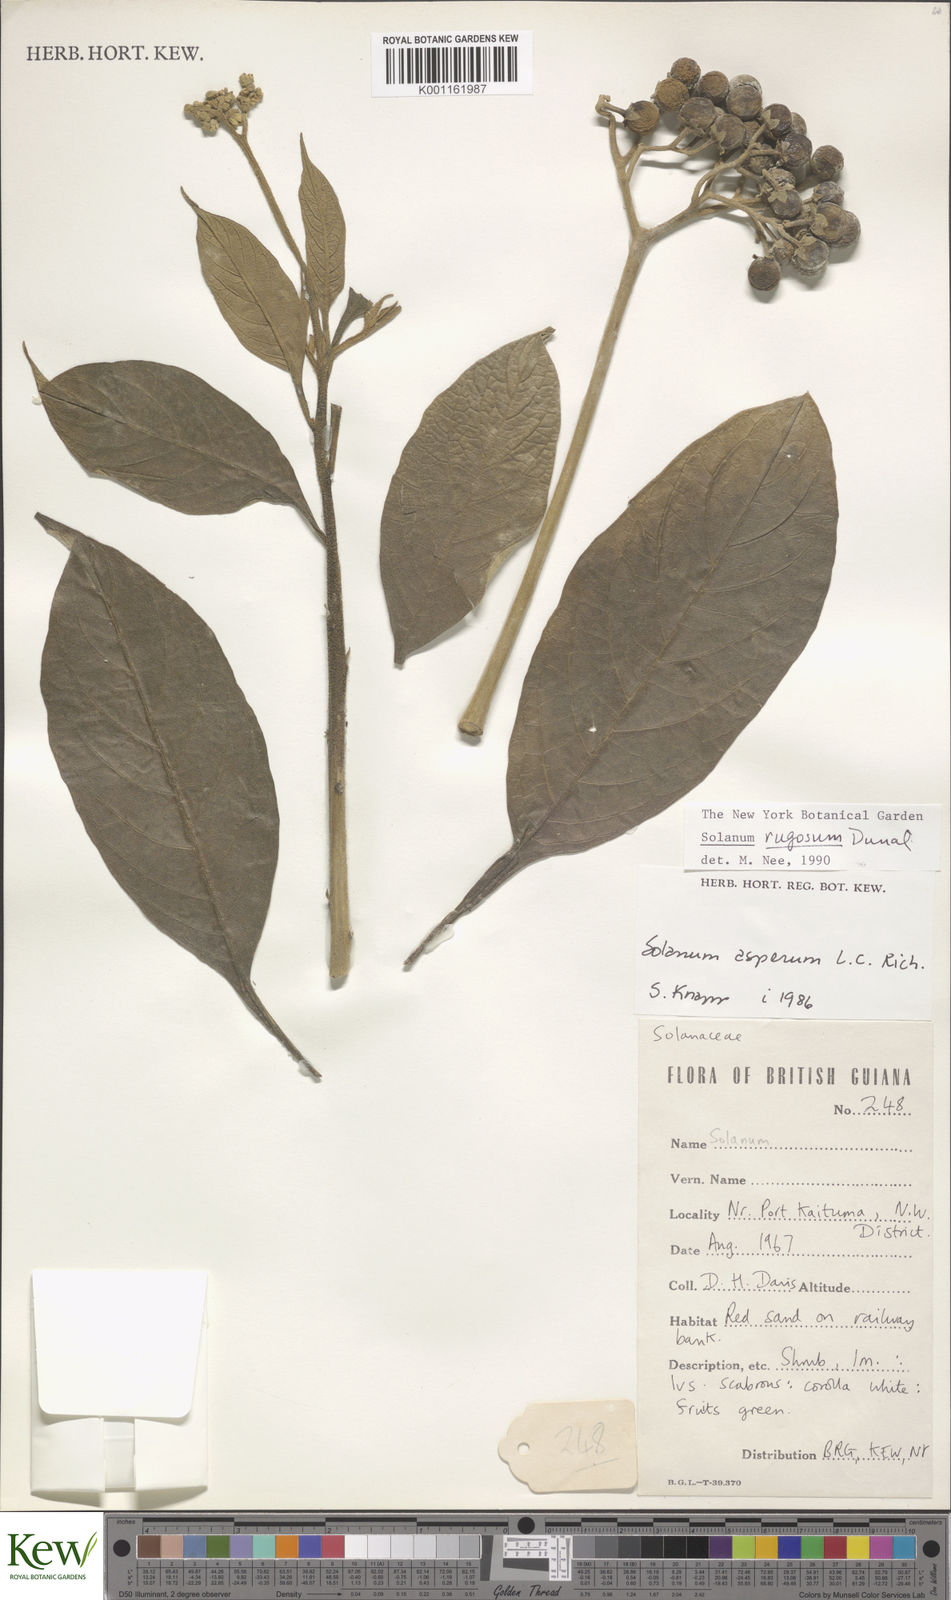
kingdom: Plantae
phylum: Tracheophyta
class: Magnoliopsida
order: Solanales
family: Solanaceae
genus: Solanum
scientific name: Solanum rugosum
